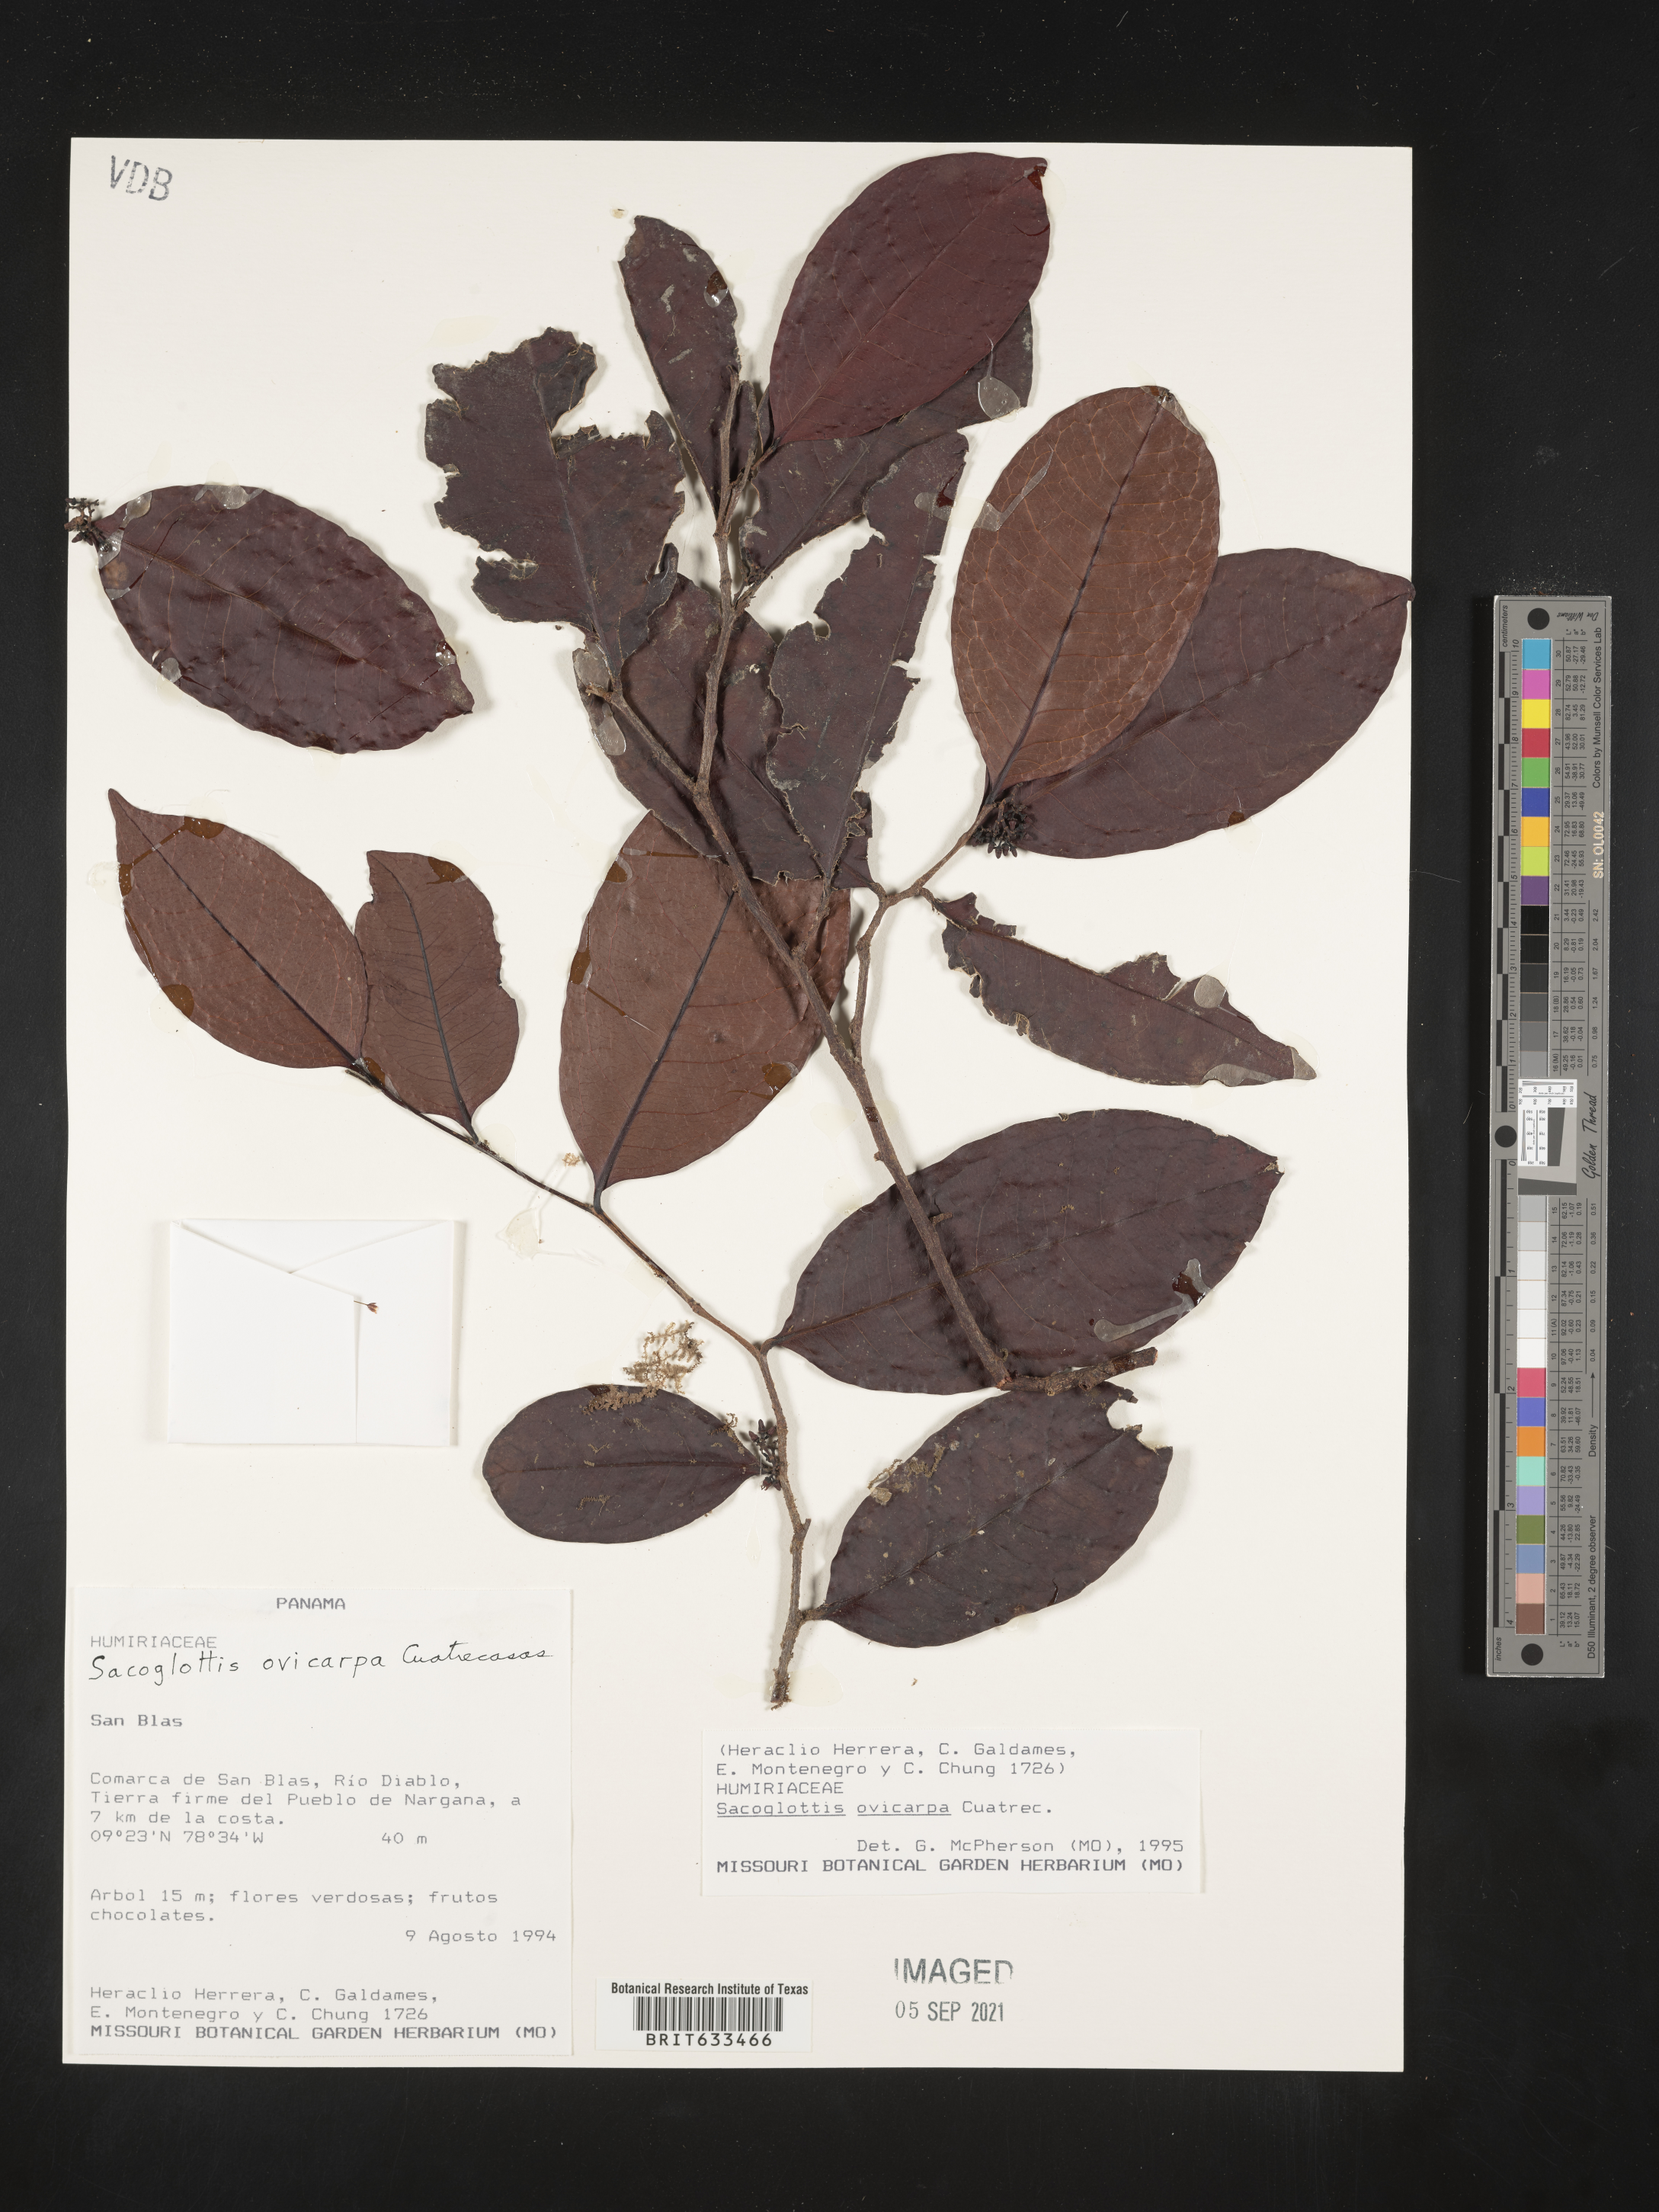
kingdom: Plantae
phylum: Tracheophyta
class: Magnoliopsida
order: Malpighiales
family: Humiriaceae
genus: Sacoglottis
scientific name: Sacoglottis
